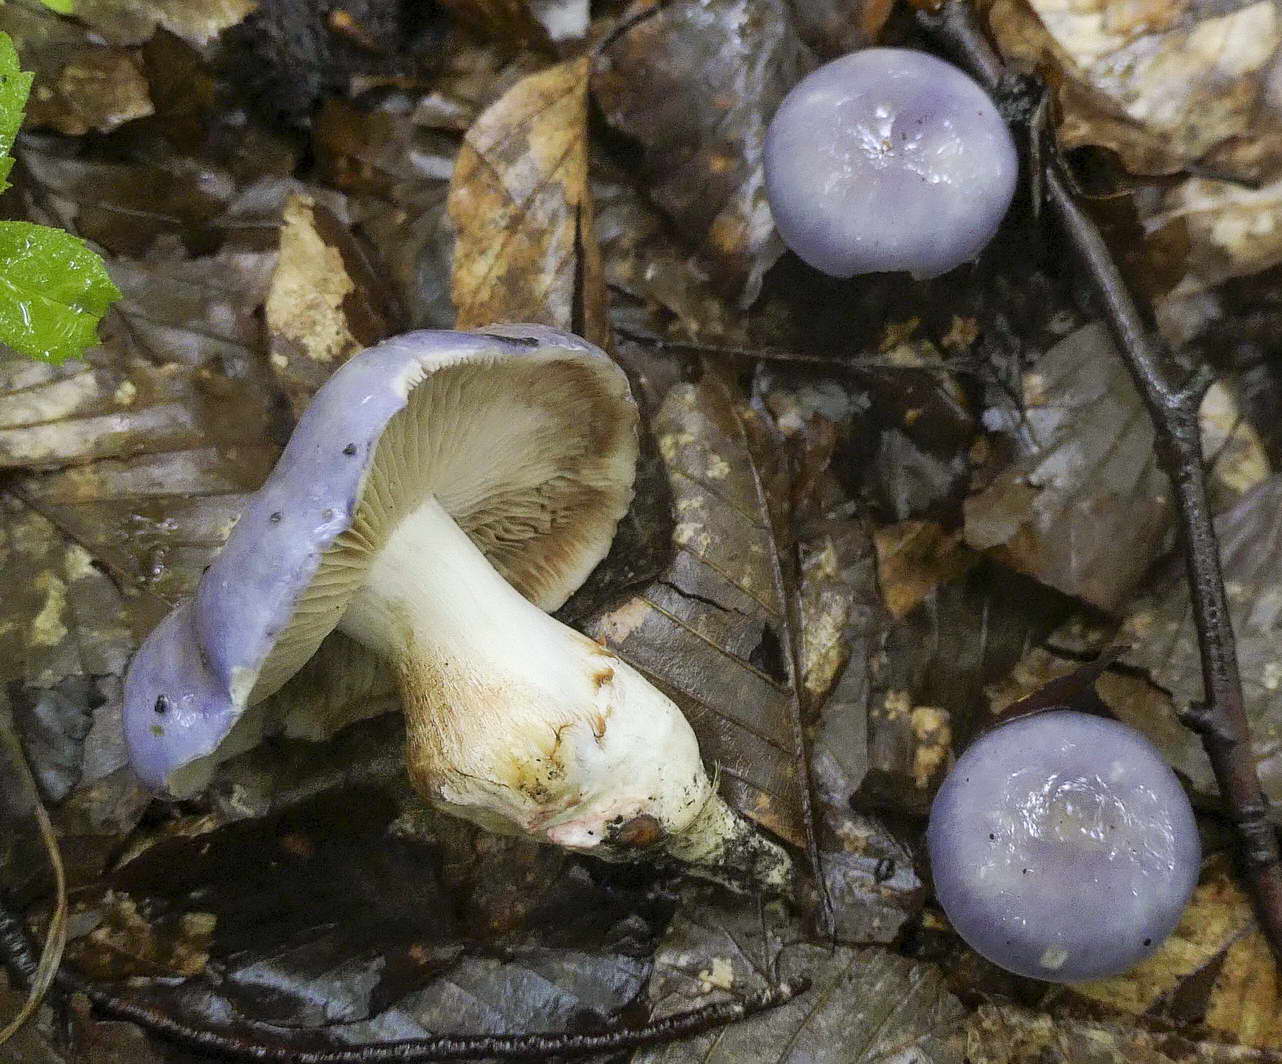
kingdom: Fungi
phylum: Basidiomycota
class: Agaricomycetes
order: Agaricales
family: Cortinariaceae
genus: Thaxterogaster
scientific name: Thaxterogaster croceocoeruleus
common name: blågullig slørhat
